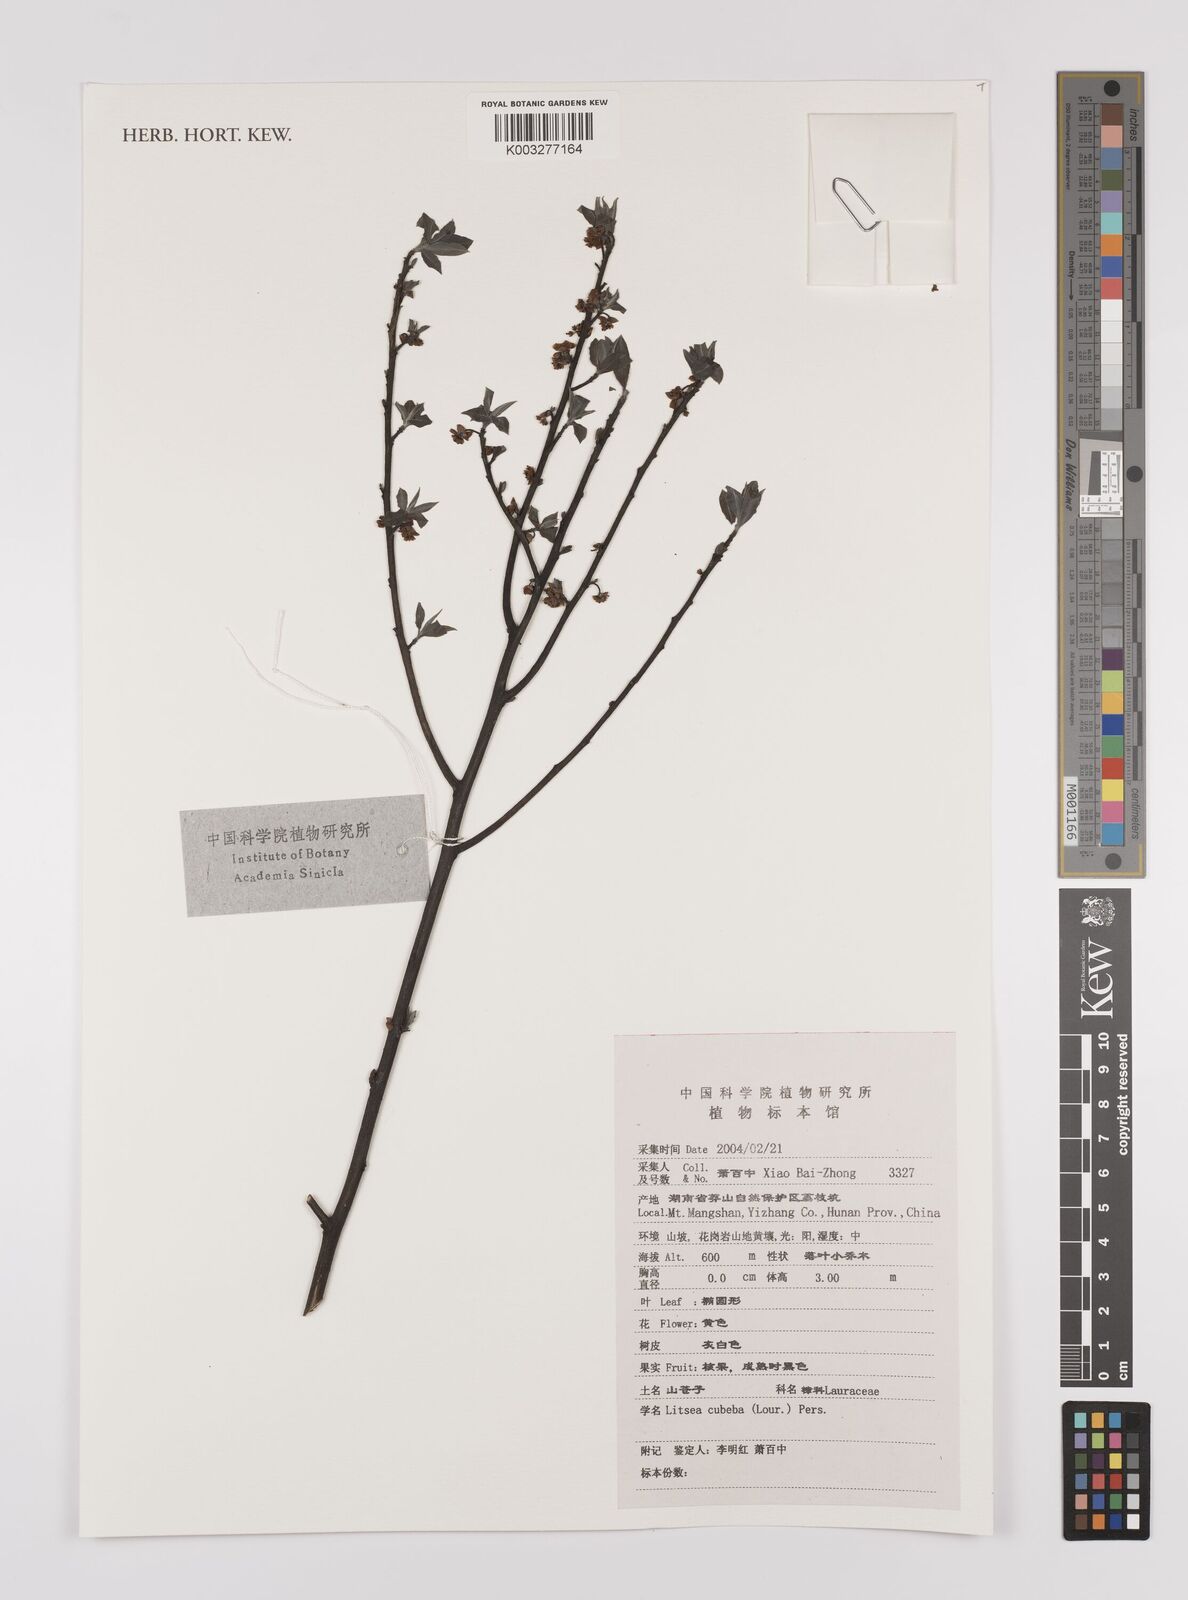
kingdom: Plantae
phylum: Tracheophyta
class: Magnoliopsida
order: Laurales
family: Lauraceae
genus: Litsea
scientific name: Litsea cubeba
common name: Mountain-pepper
